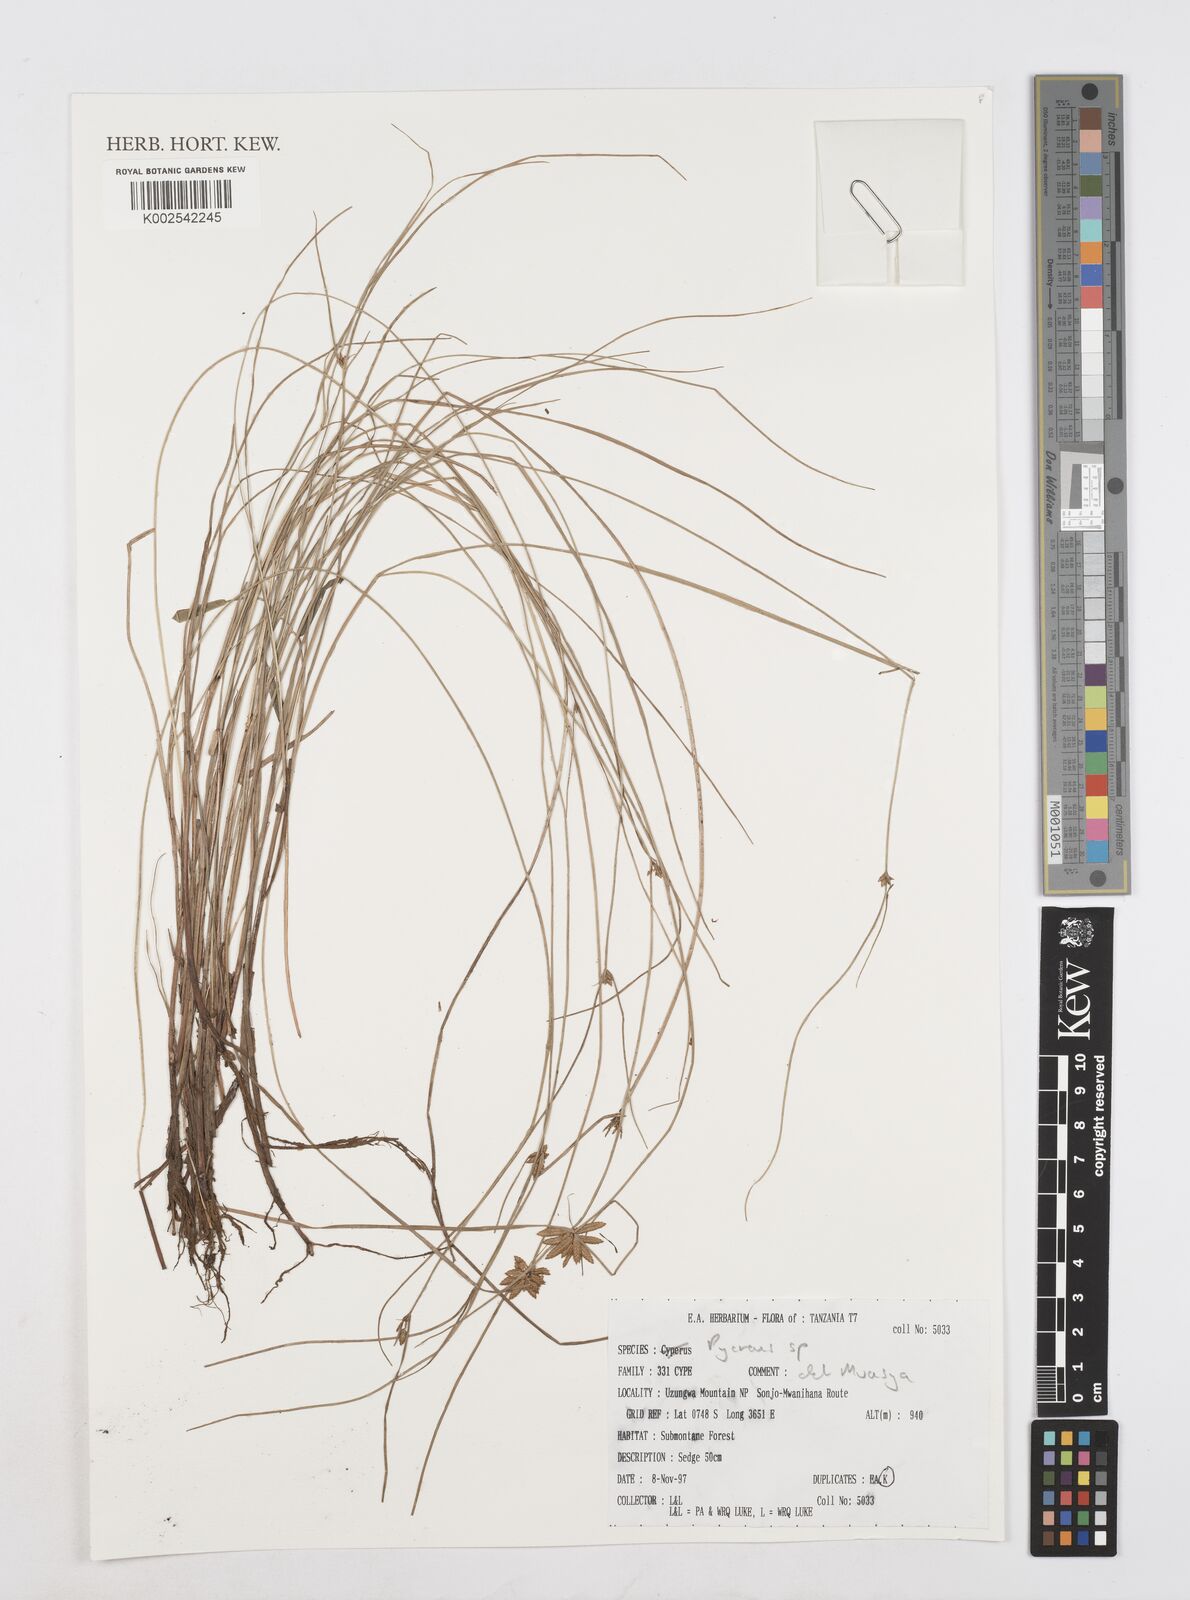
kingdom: Plantae
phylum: Tracheophyta
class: Liliopsida
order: Poales
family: Cyperaceae
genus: Cyperus
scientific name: Cyperus
